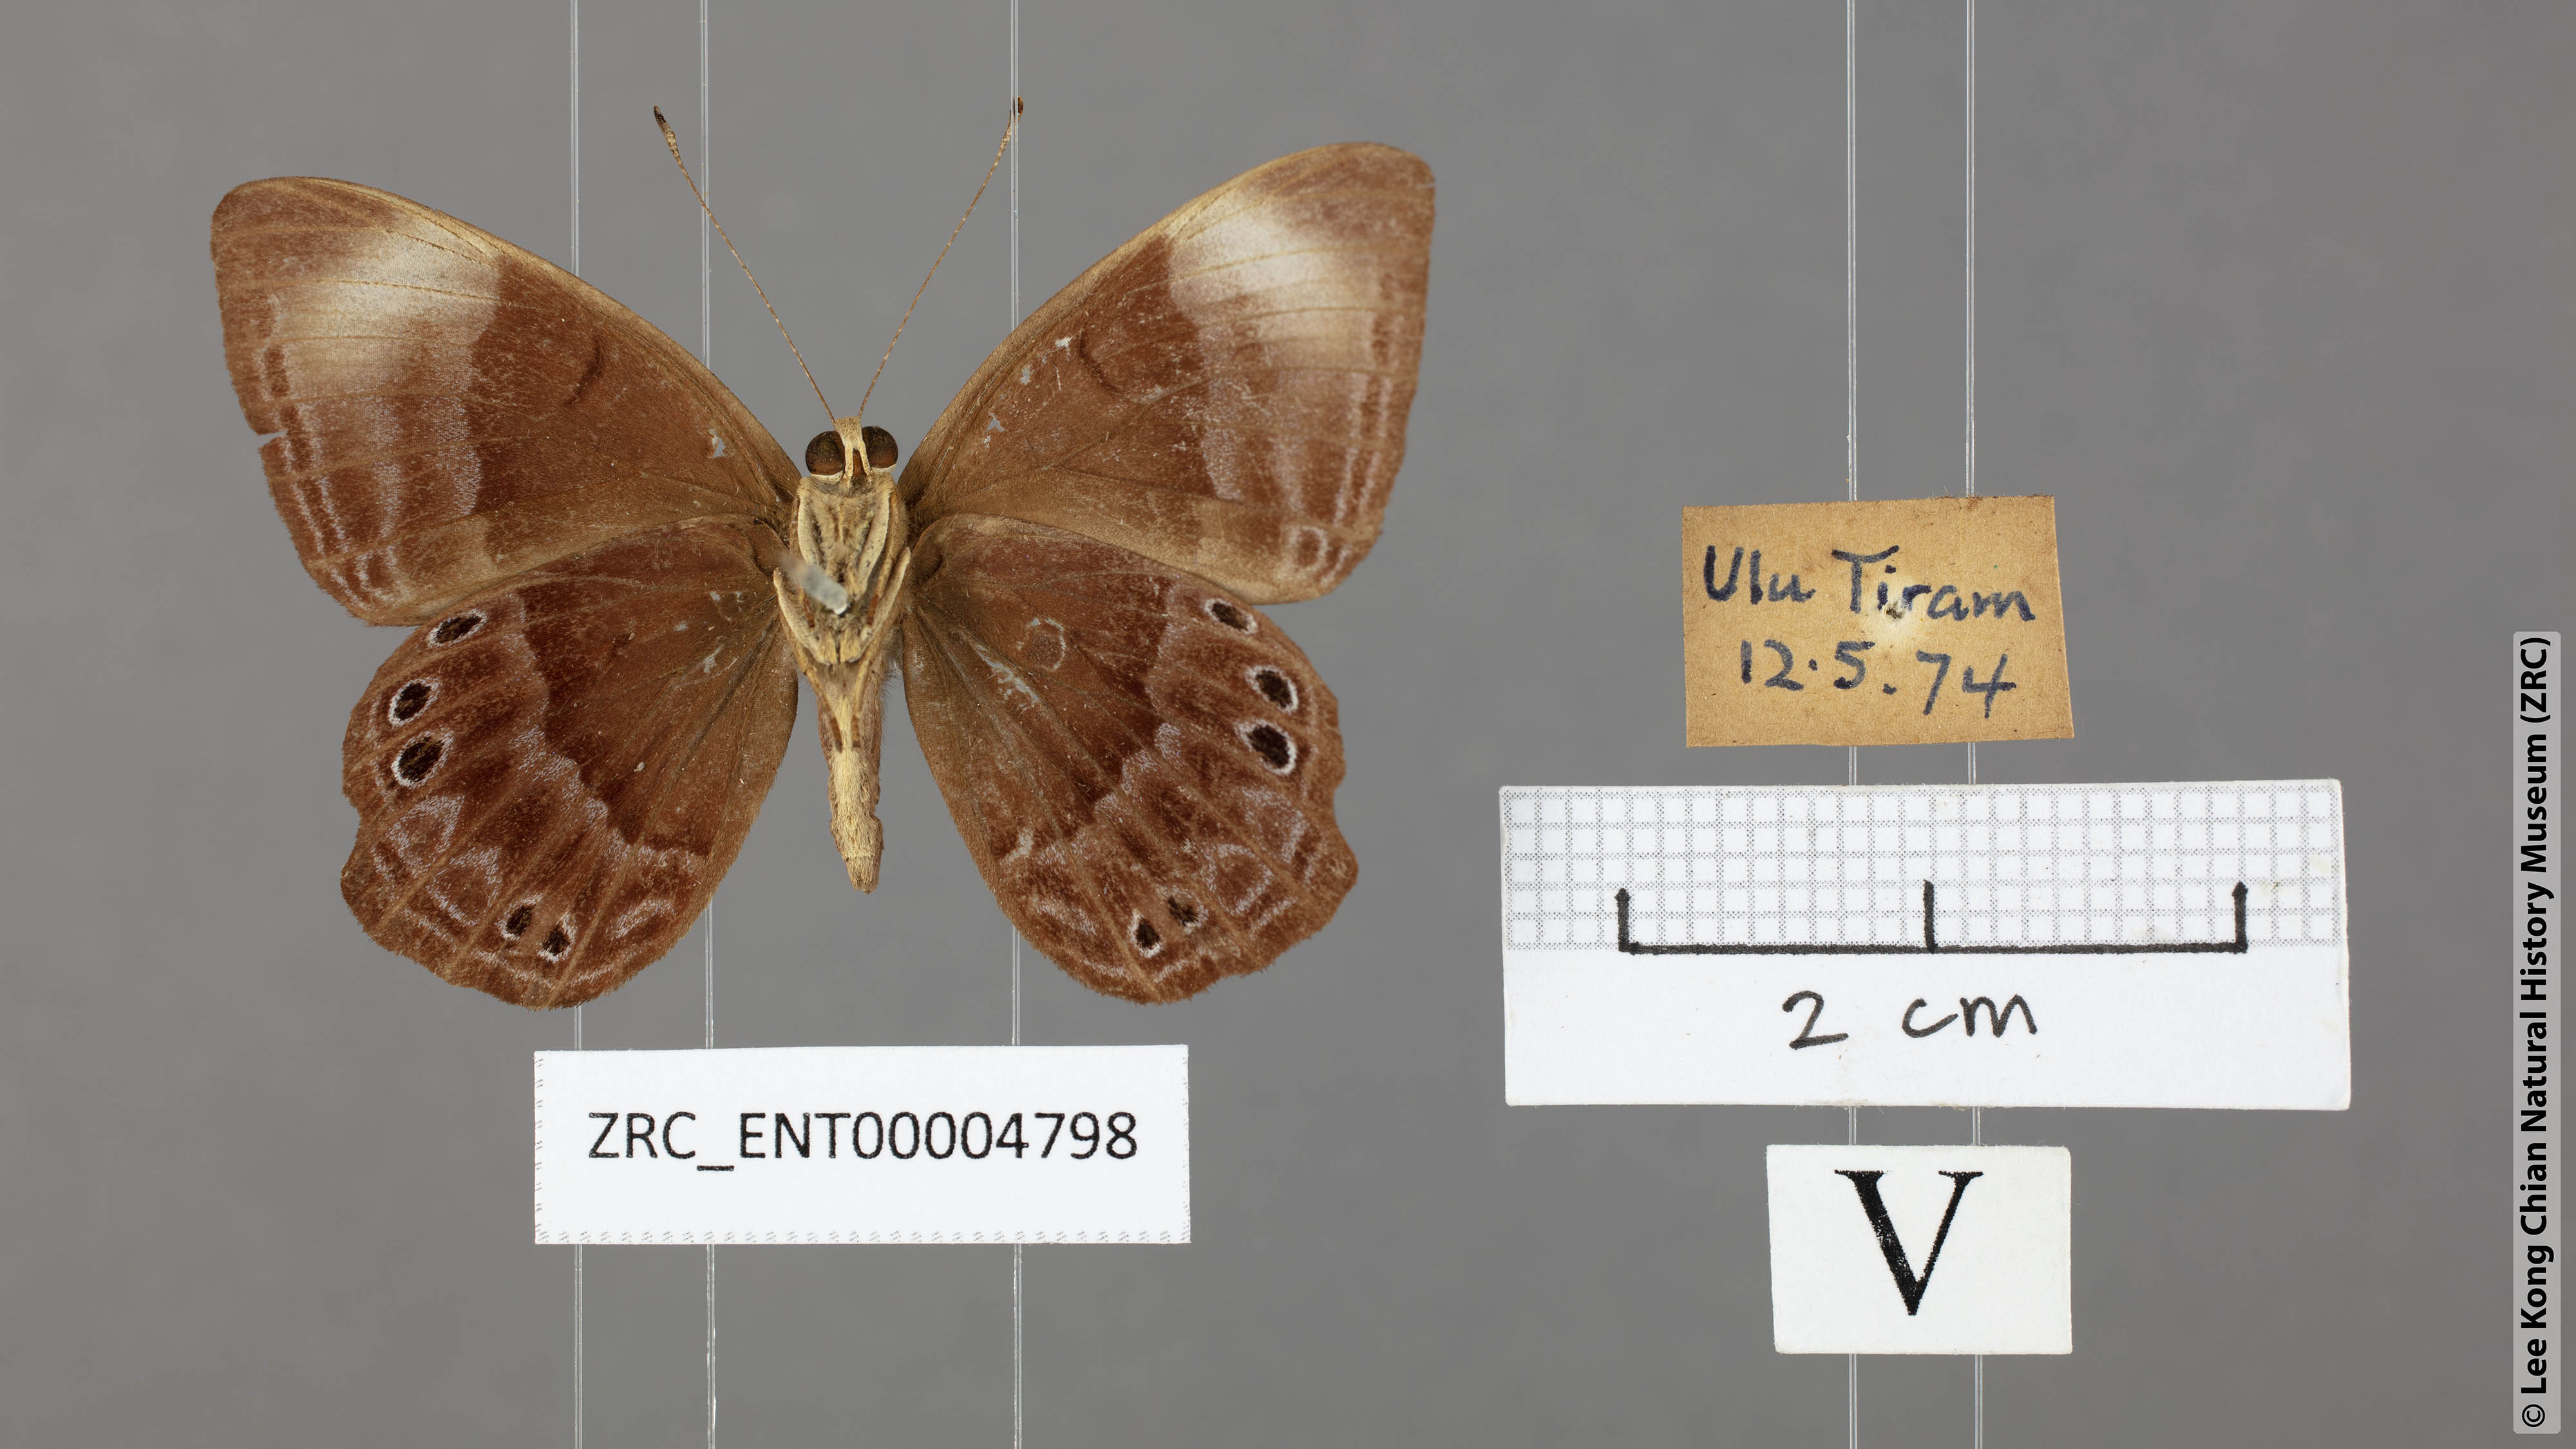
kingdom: Animalia
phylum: Arthropoda
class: Insecta
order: Lepidoptera
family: Lycaenidae
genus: Abisara
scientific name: Abisara geza
